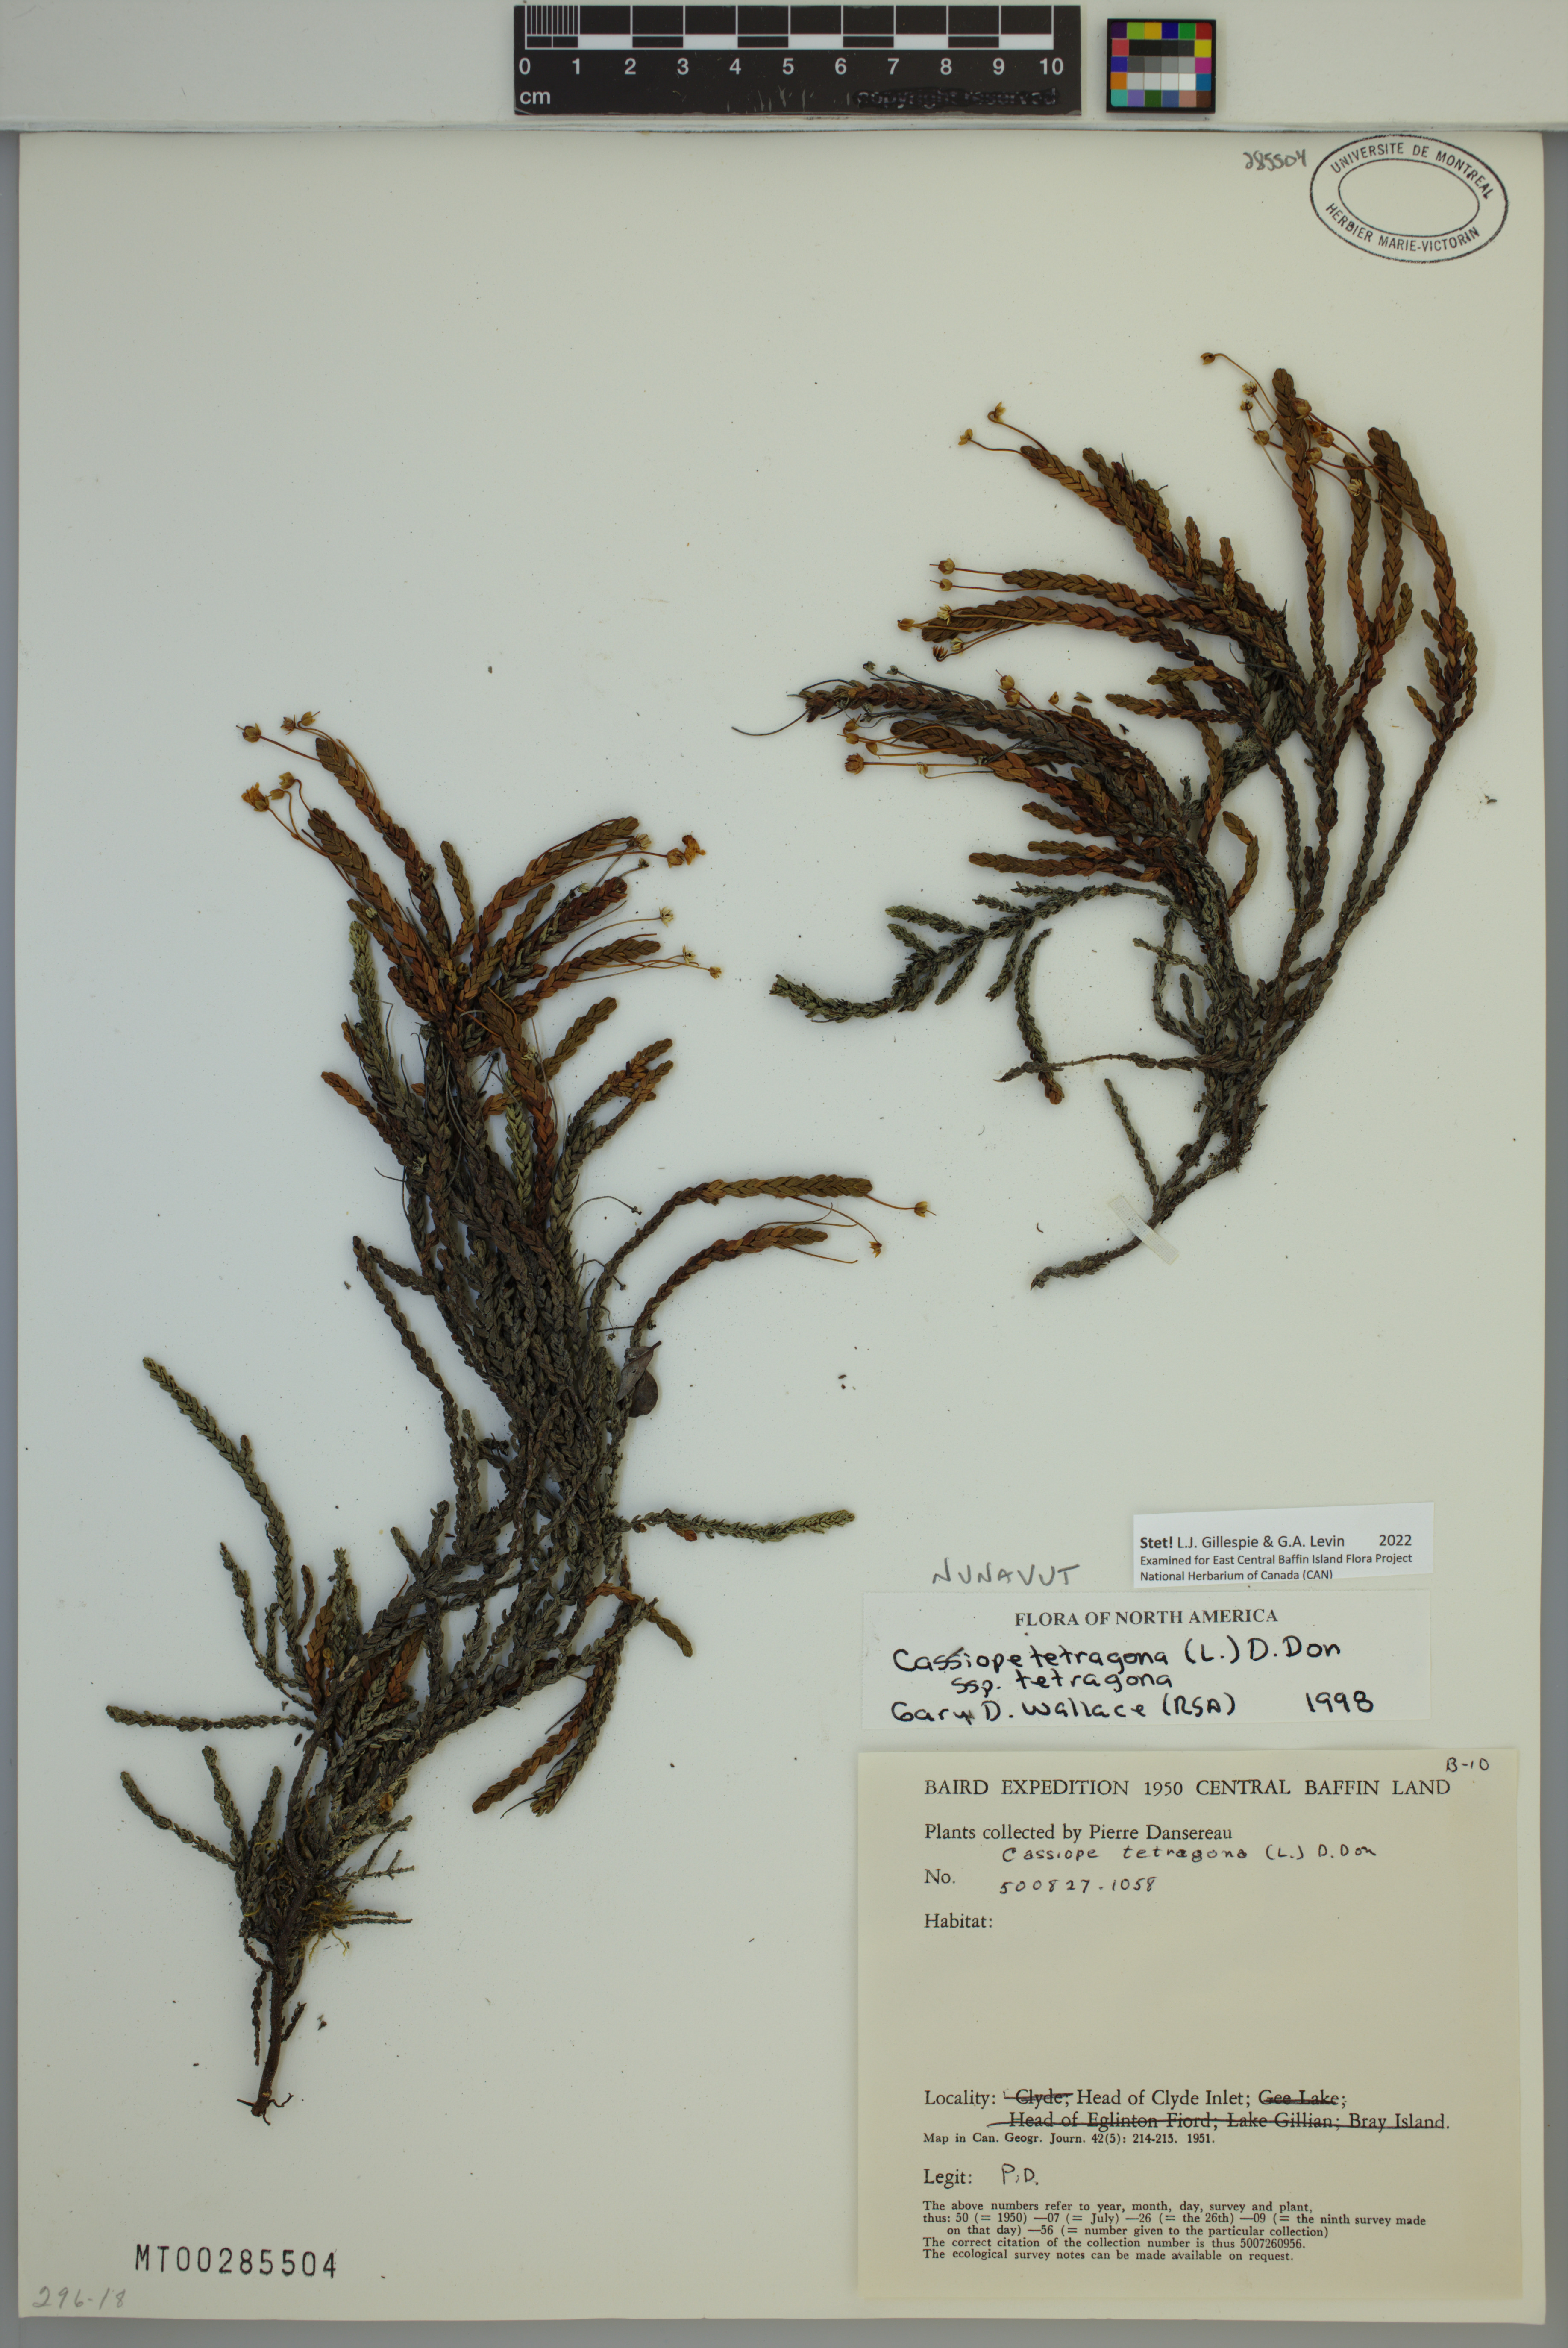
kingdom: Plantae
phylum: Tracheophyta
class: Magnoliopsida
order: Ericales
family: Ericaceae
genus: Cassiope
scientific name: Cassiope tetragona
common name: Arctic bell heather
